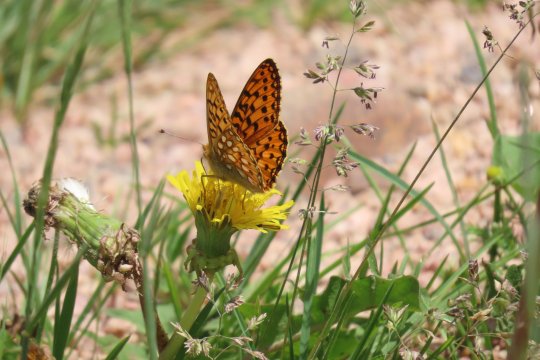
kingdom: Animalia
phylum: Arthropoda
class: Insecta
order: Lepidoptera
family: Nymphalidae
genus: Speyeria
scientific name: Speyeria mormonia
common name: Mormon Fritillary
